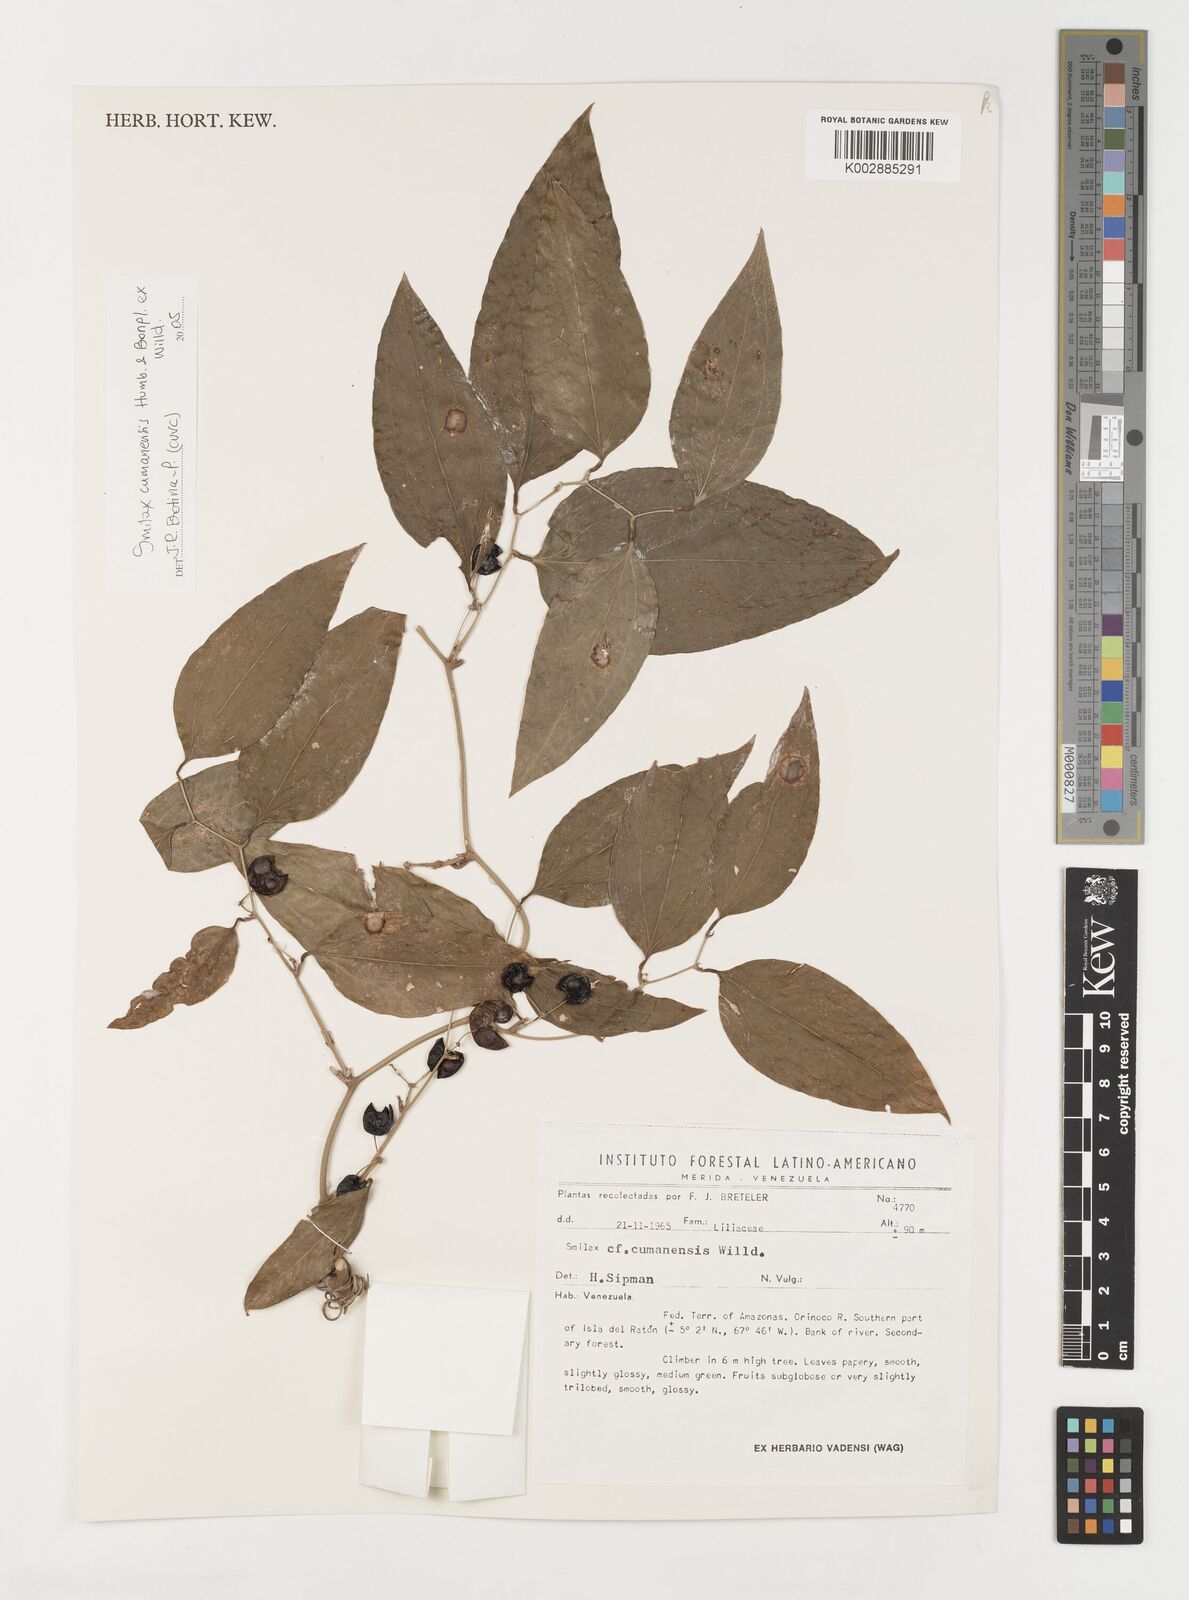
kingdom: Plantae
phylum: Tracheophyta
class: Liliopsida
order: Liliales
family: Smilacaceae
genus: Smilax
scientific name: Smilax oblongata
